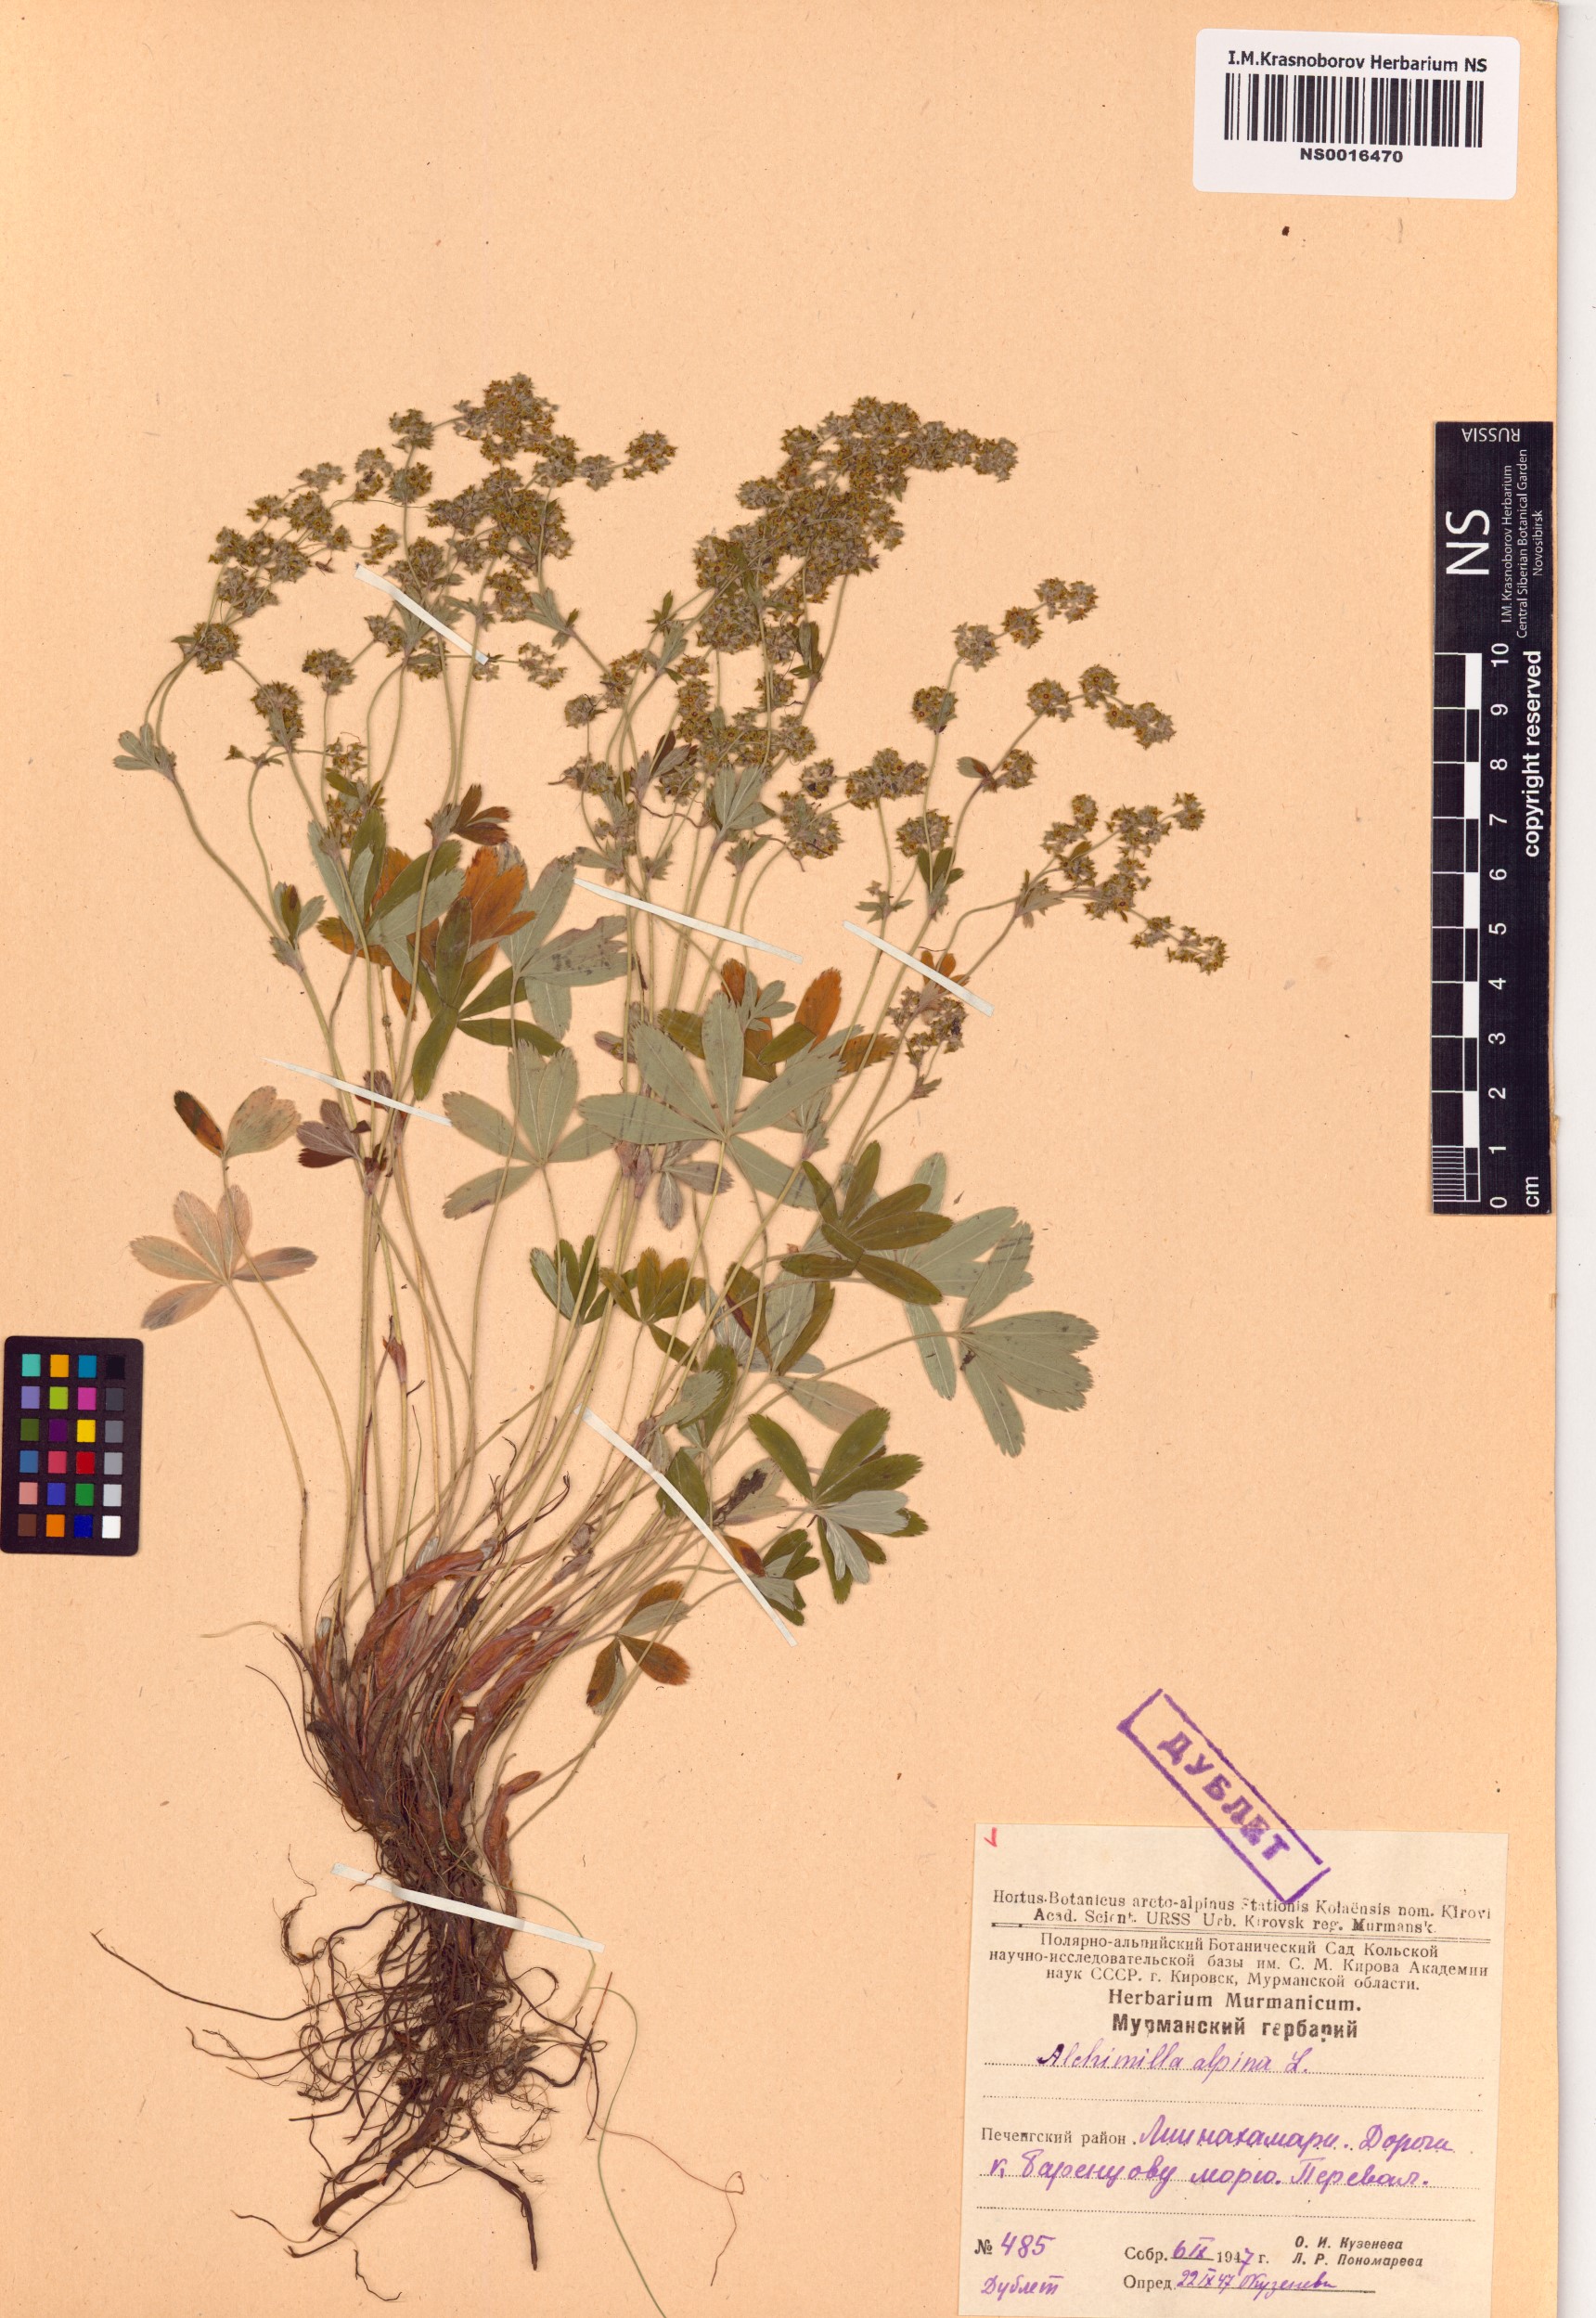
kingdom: Plantae
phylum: Tracheophyta
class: Magnoliopsida
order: Rosales
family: Rosaceae
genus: Alchemilla
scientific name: Alchemilla alpina
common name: Alpine lady's-mantle
